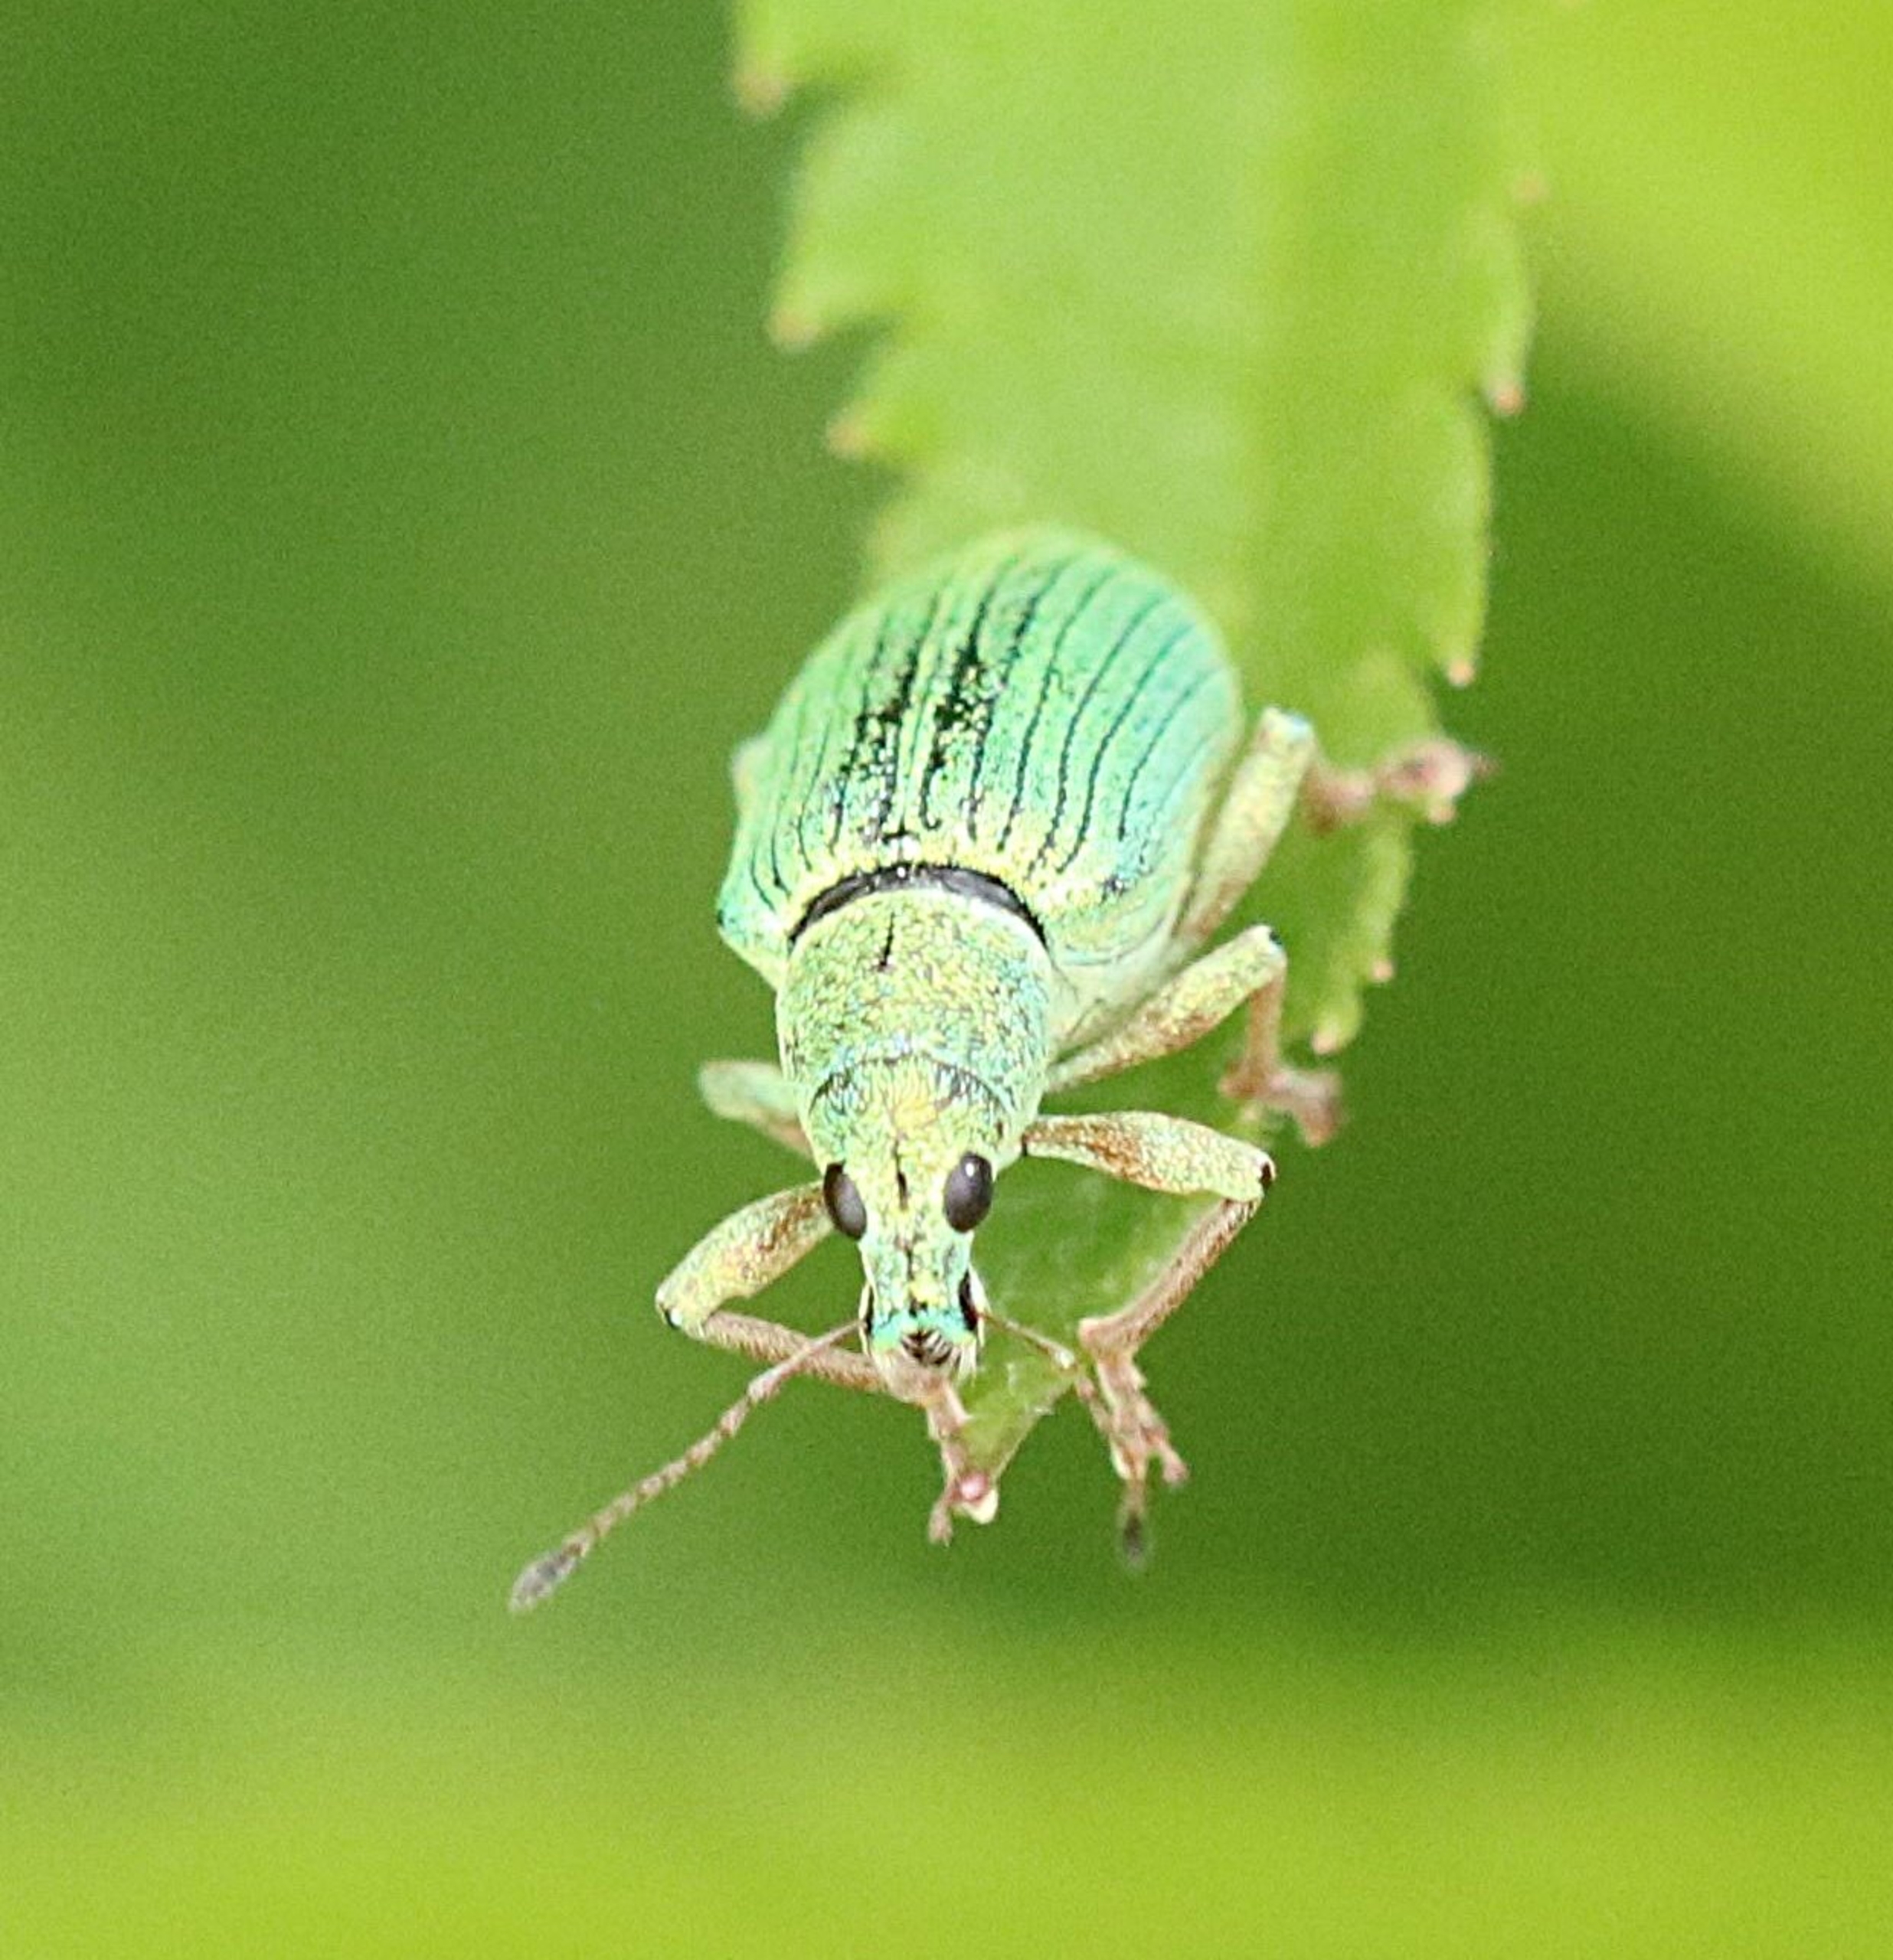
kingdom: Animalia
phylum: Arthropoda
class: Insecta
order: Coleoptera
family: Curculionidae
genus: Polydrusus
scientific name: Polydrusus formosus
